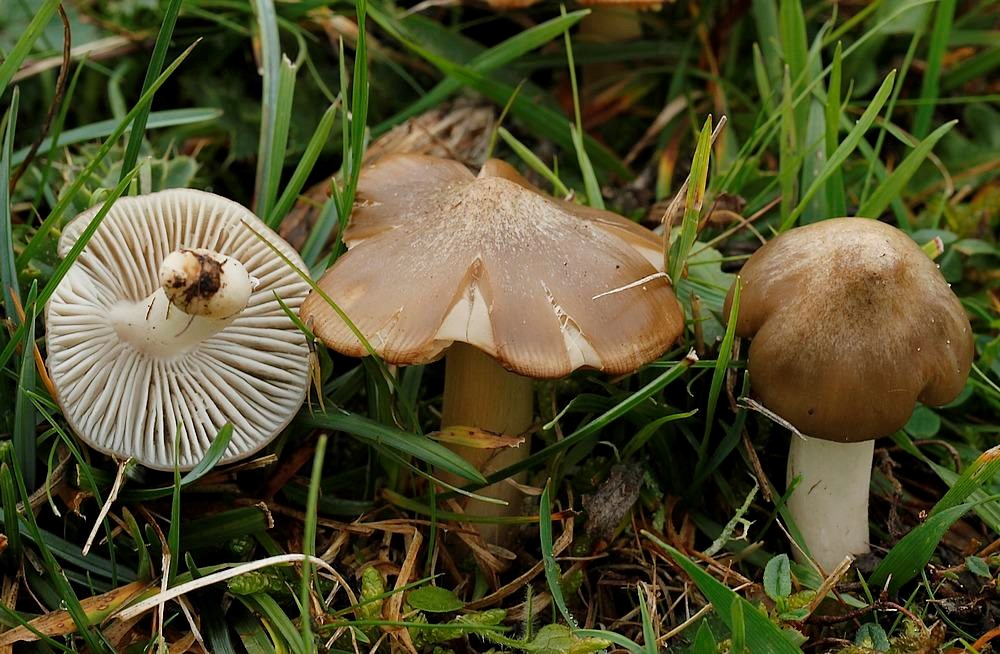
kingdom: Fungi
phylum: Basidiomycota
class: Agaricomycetes
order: Agaricales
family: Hygrophoraceae
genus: Cuphophyllus
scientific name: Cuphophyllus fornicatus
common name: gråbrun vokshat
